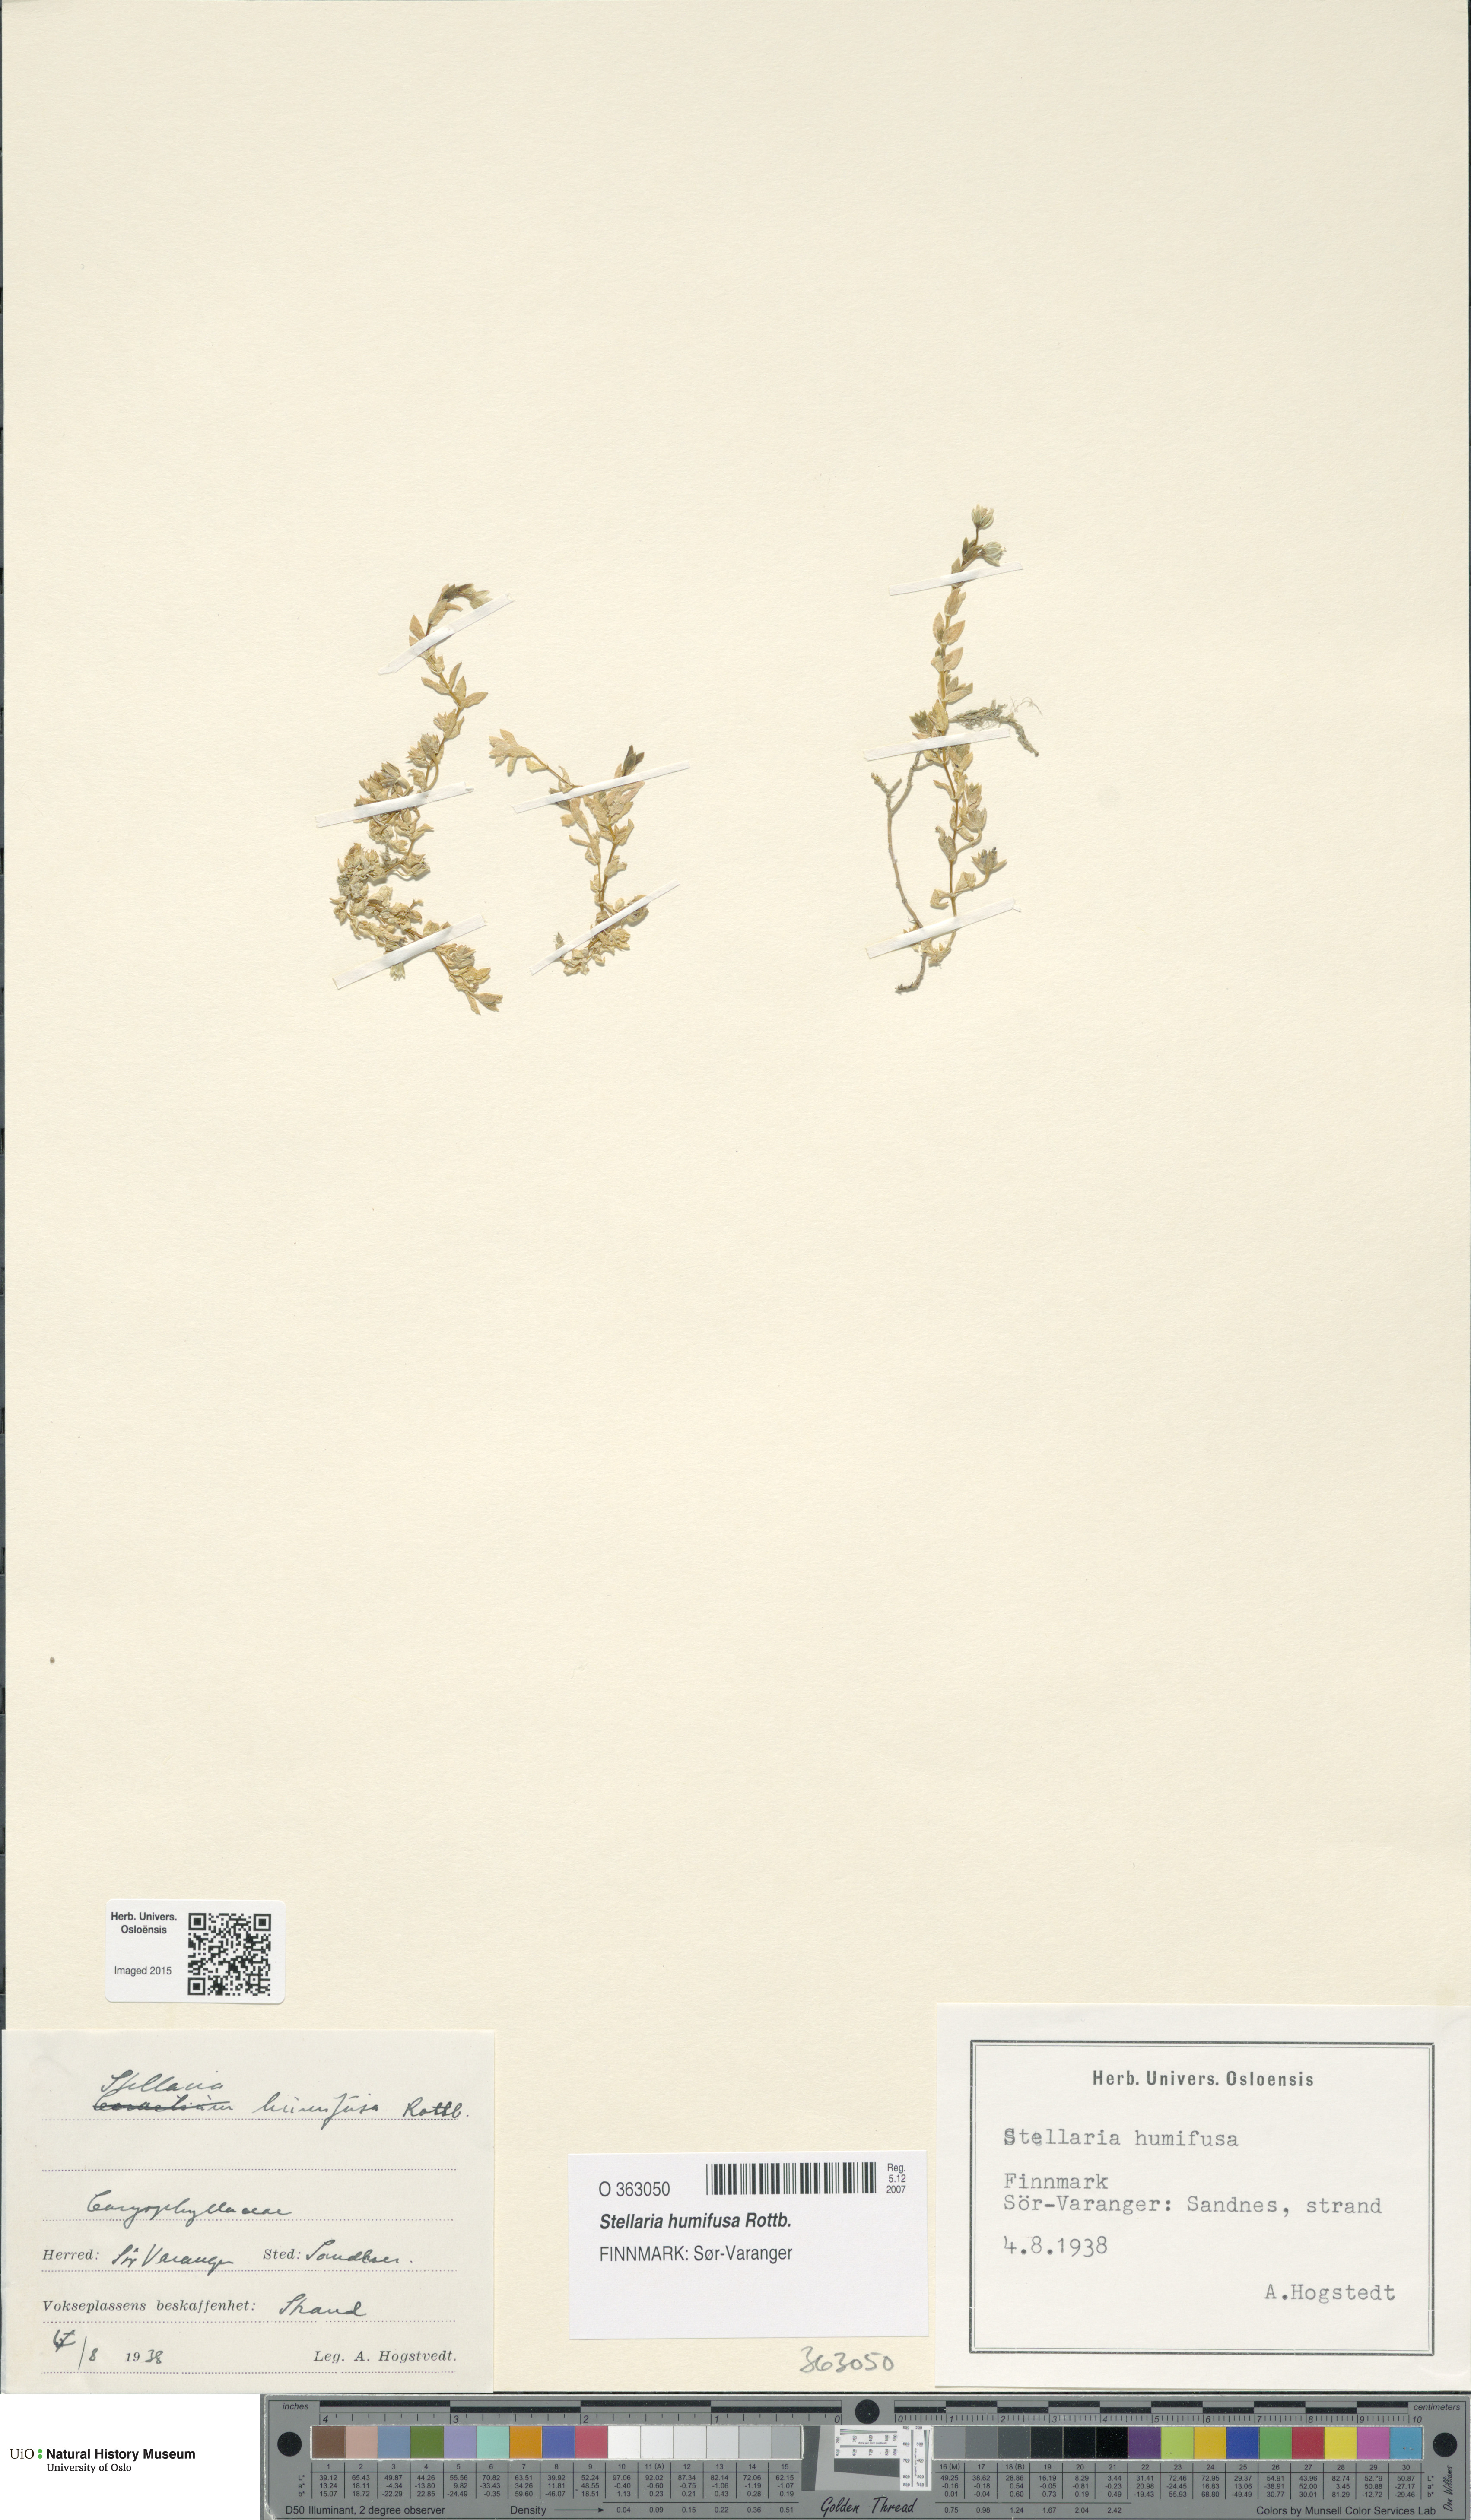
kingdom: Plantae
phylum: Tracheophyta
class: Magnoliopsida
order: Caryophyllales
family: Caryophyllaceae
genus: Stellaria
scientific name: Stellaria humifusa
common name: Creeping starwort
